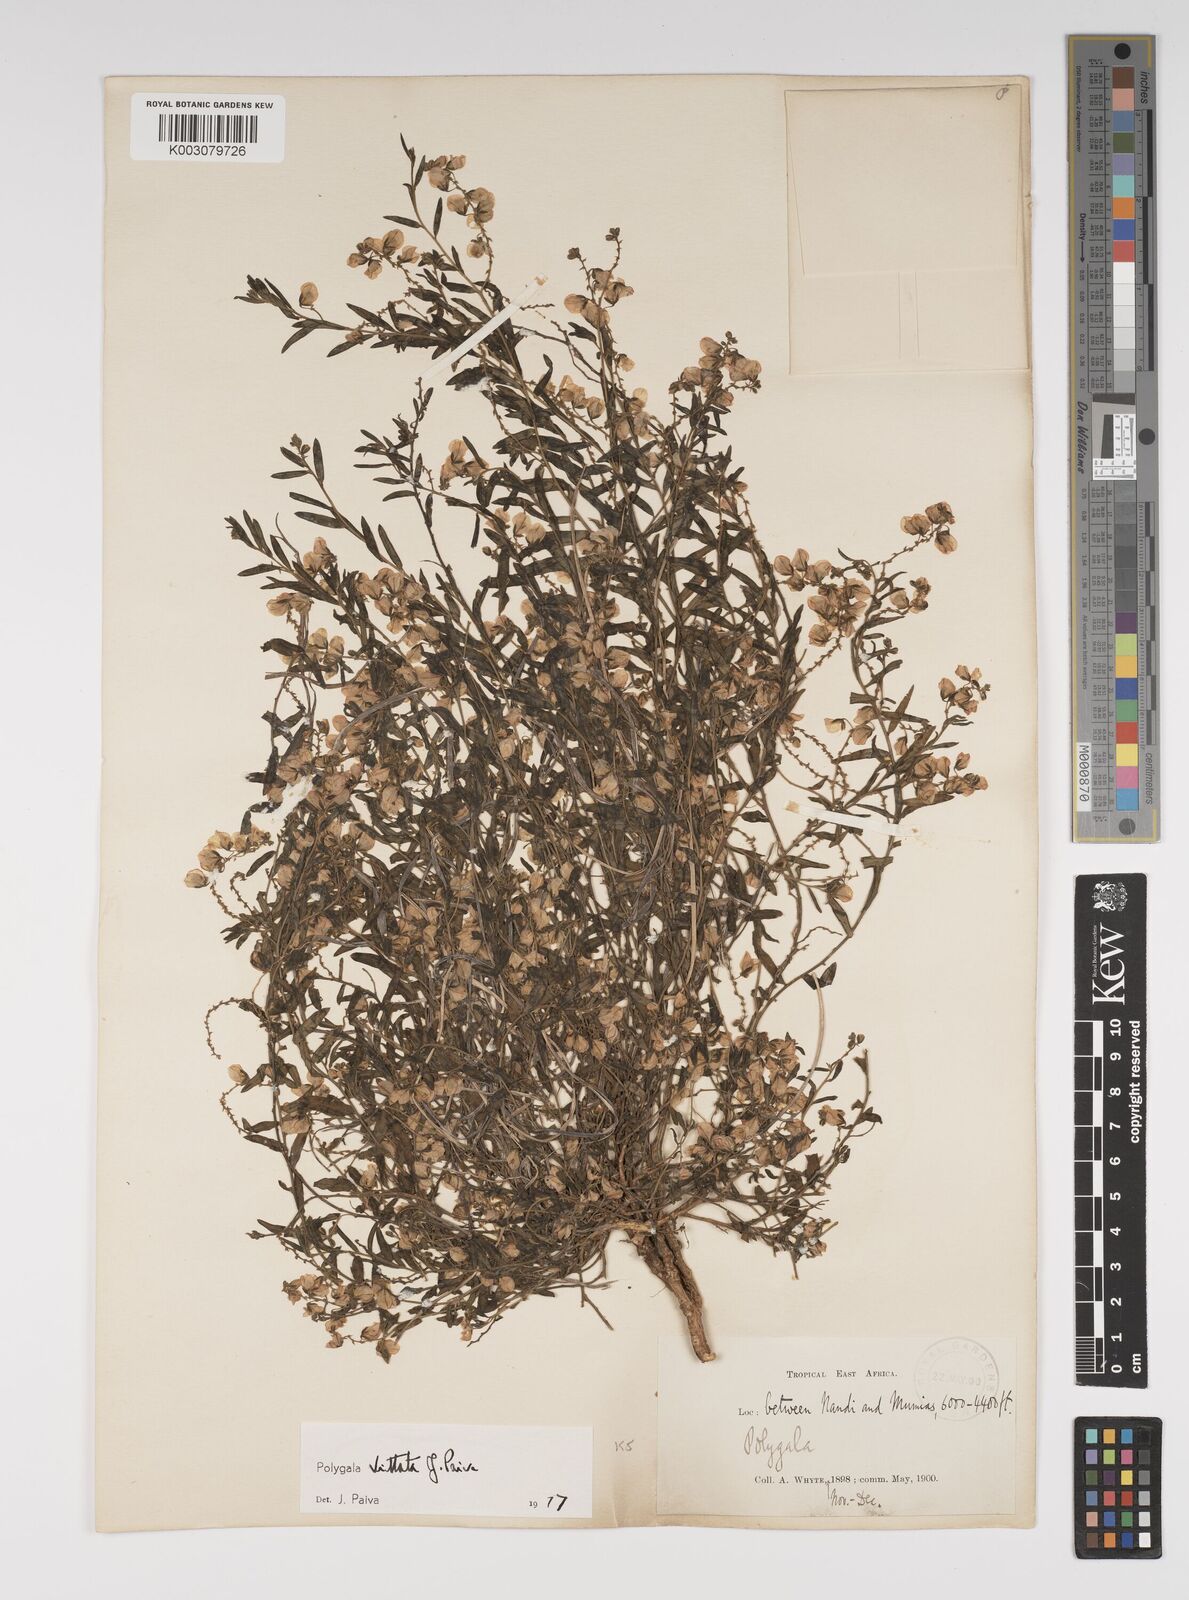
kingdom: Plantae
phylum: Tracheophyta
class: Magnoliopsida
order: Fabales
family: Polygalaceae
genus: Polygala
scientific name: Polygala vittata
